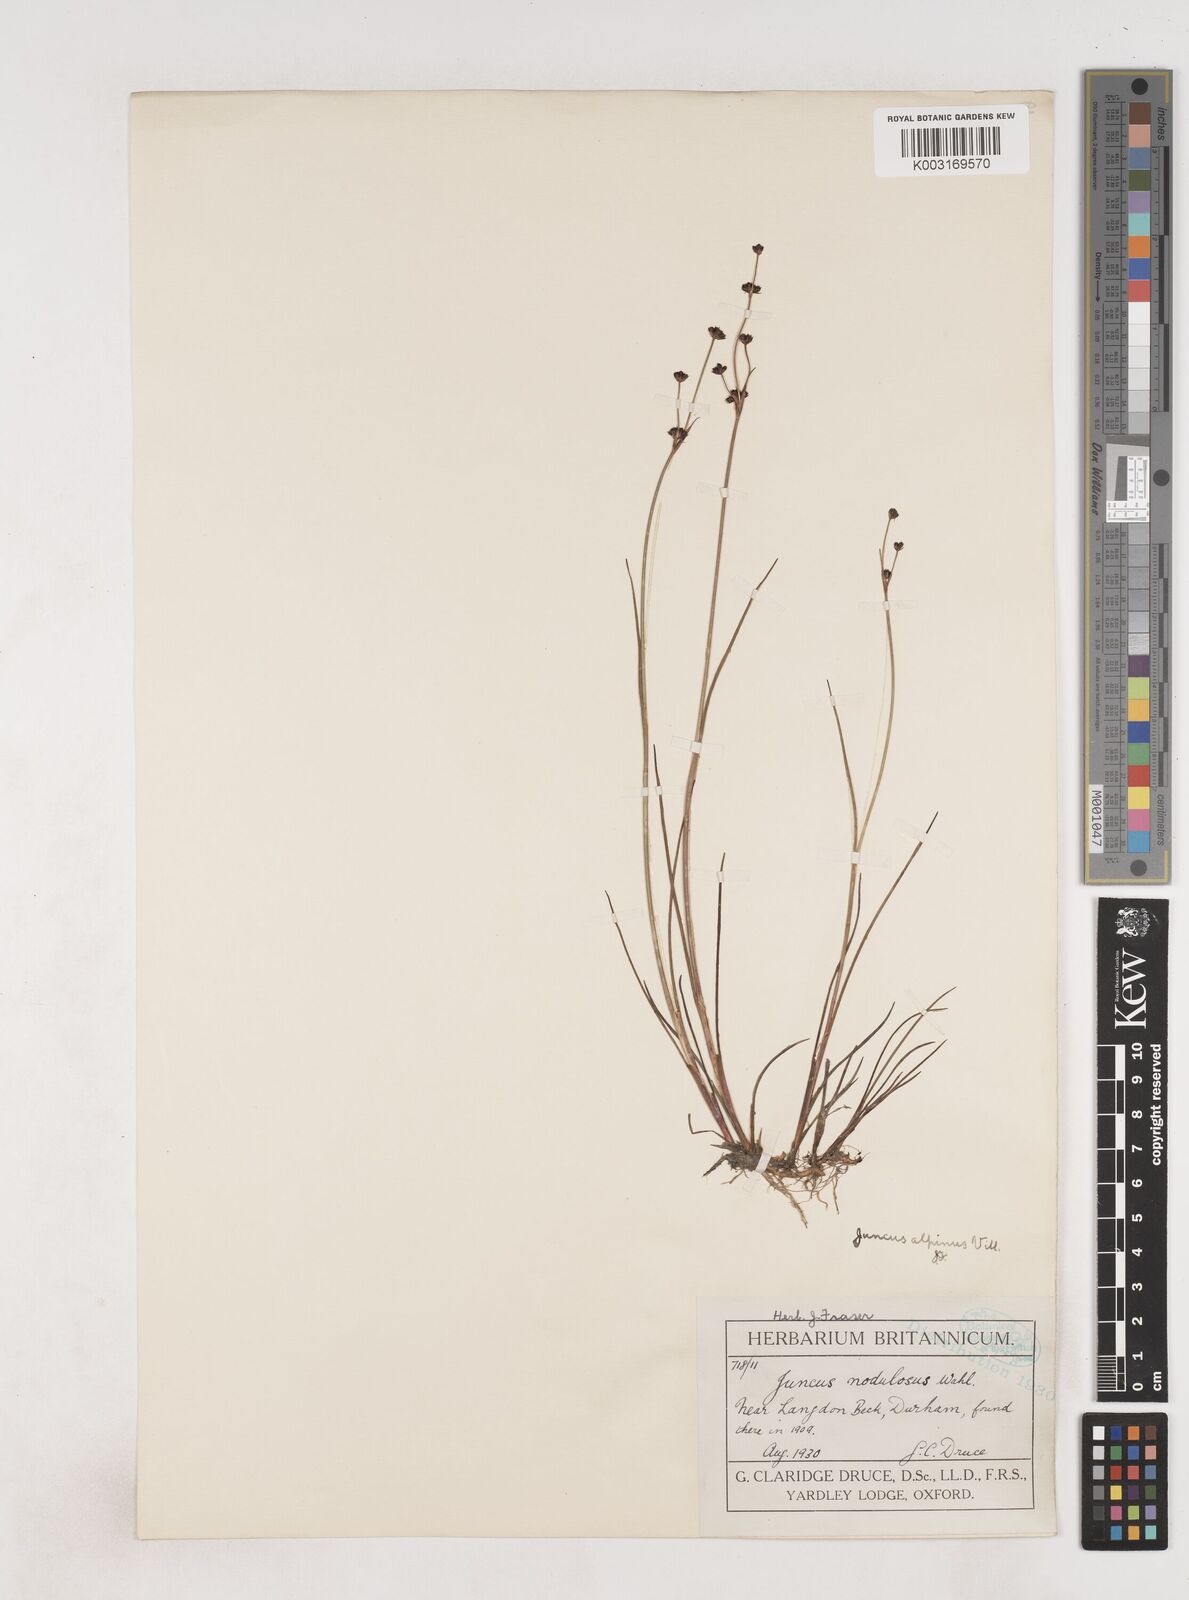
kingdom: Plantae
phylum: Tracheophyta
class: Liliopsida
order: Poales
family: Juncaceae
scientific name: Juncaceae
